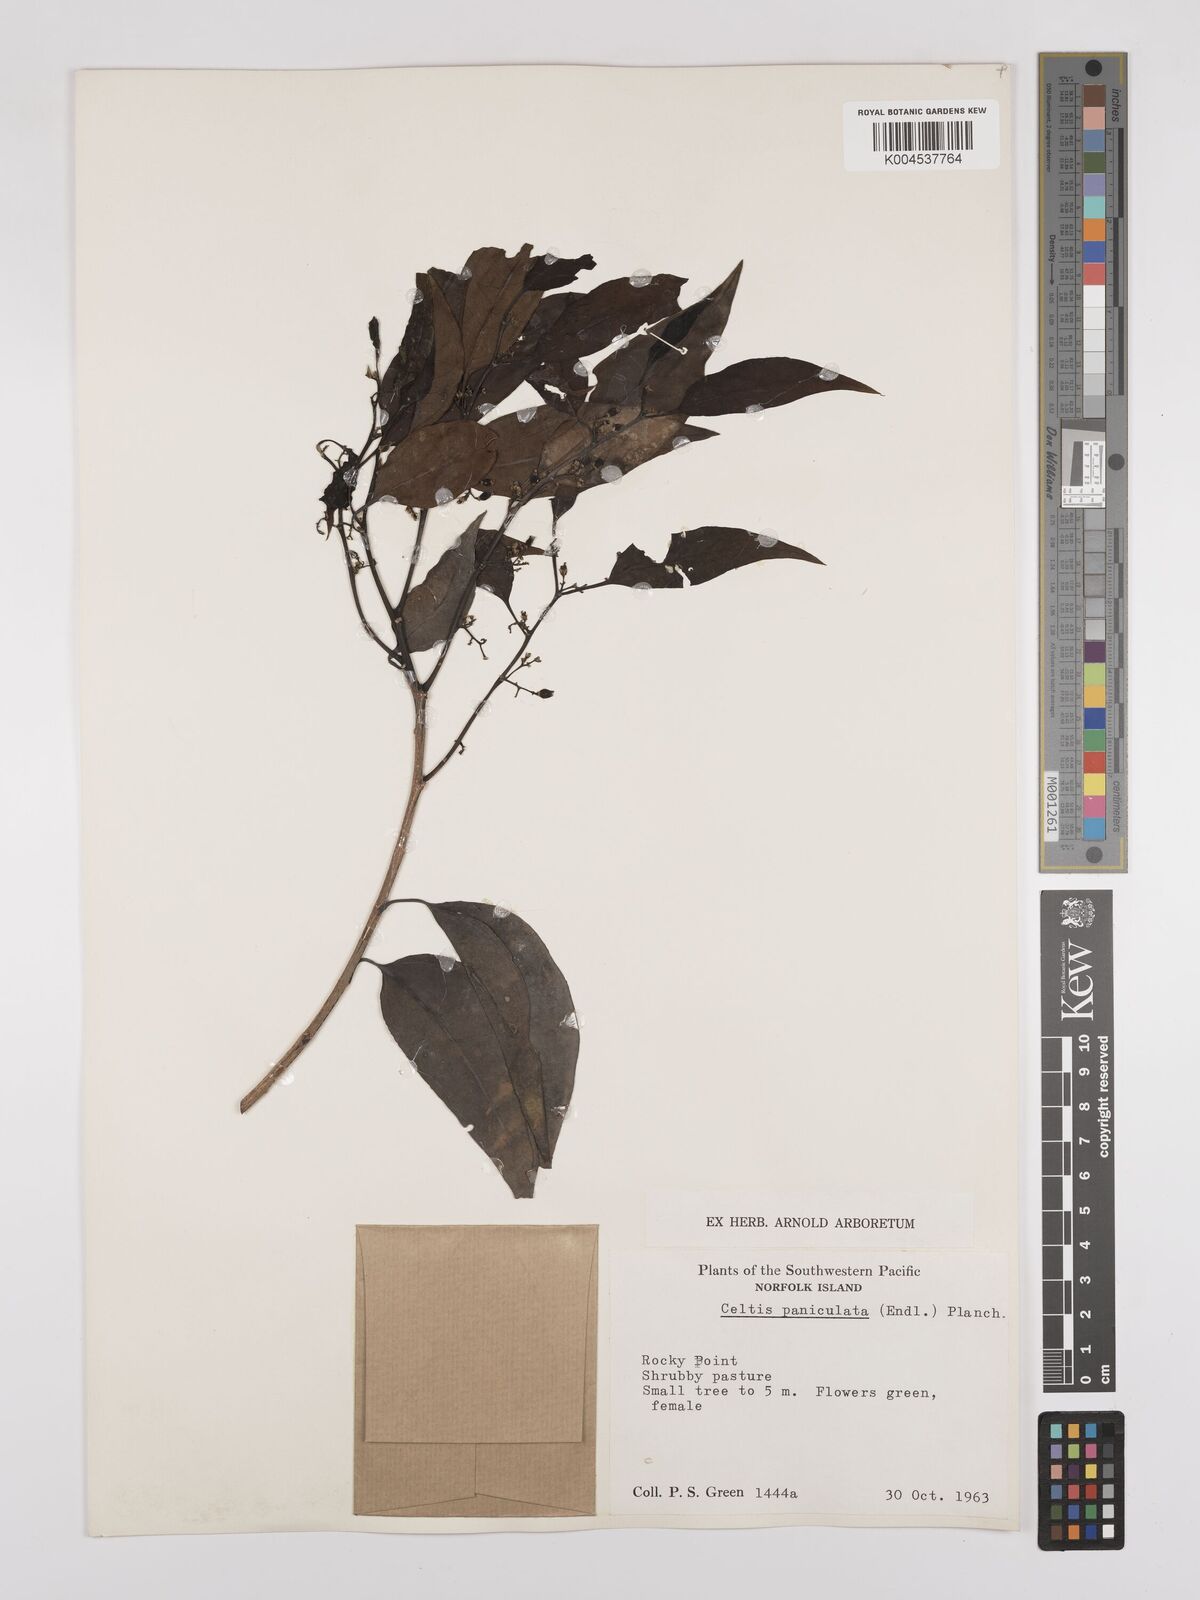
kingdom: Plantae
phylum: Tracheophyta
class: Magnoliopsida
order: Rosales
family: Cannabaceae
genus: Celtis
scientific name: Celtis paniculata
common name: Silky celtis
